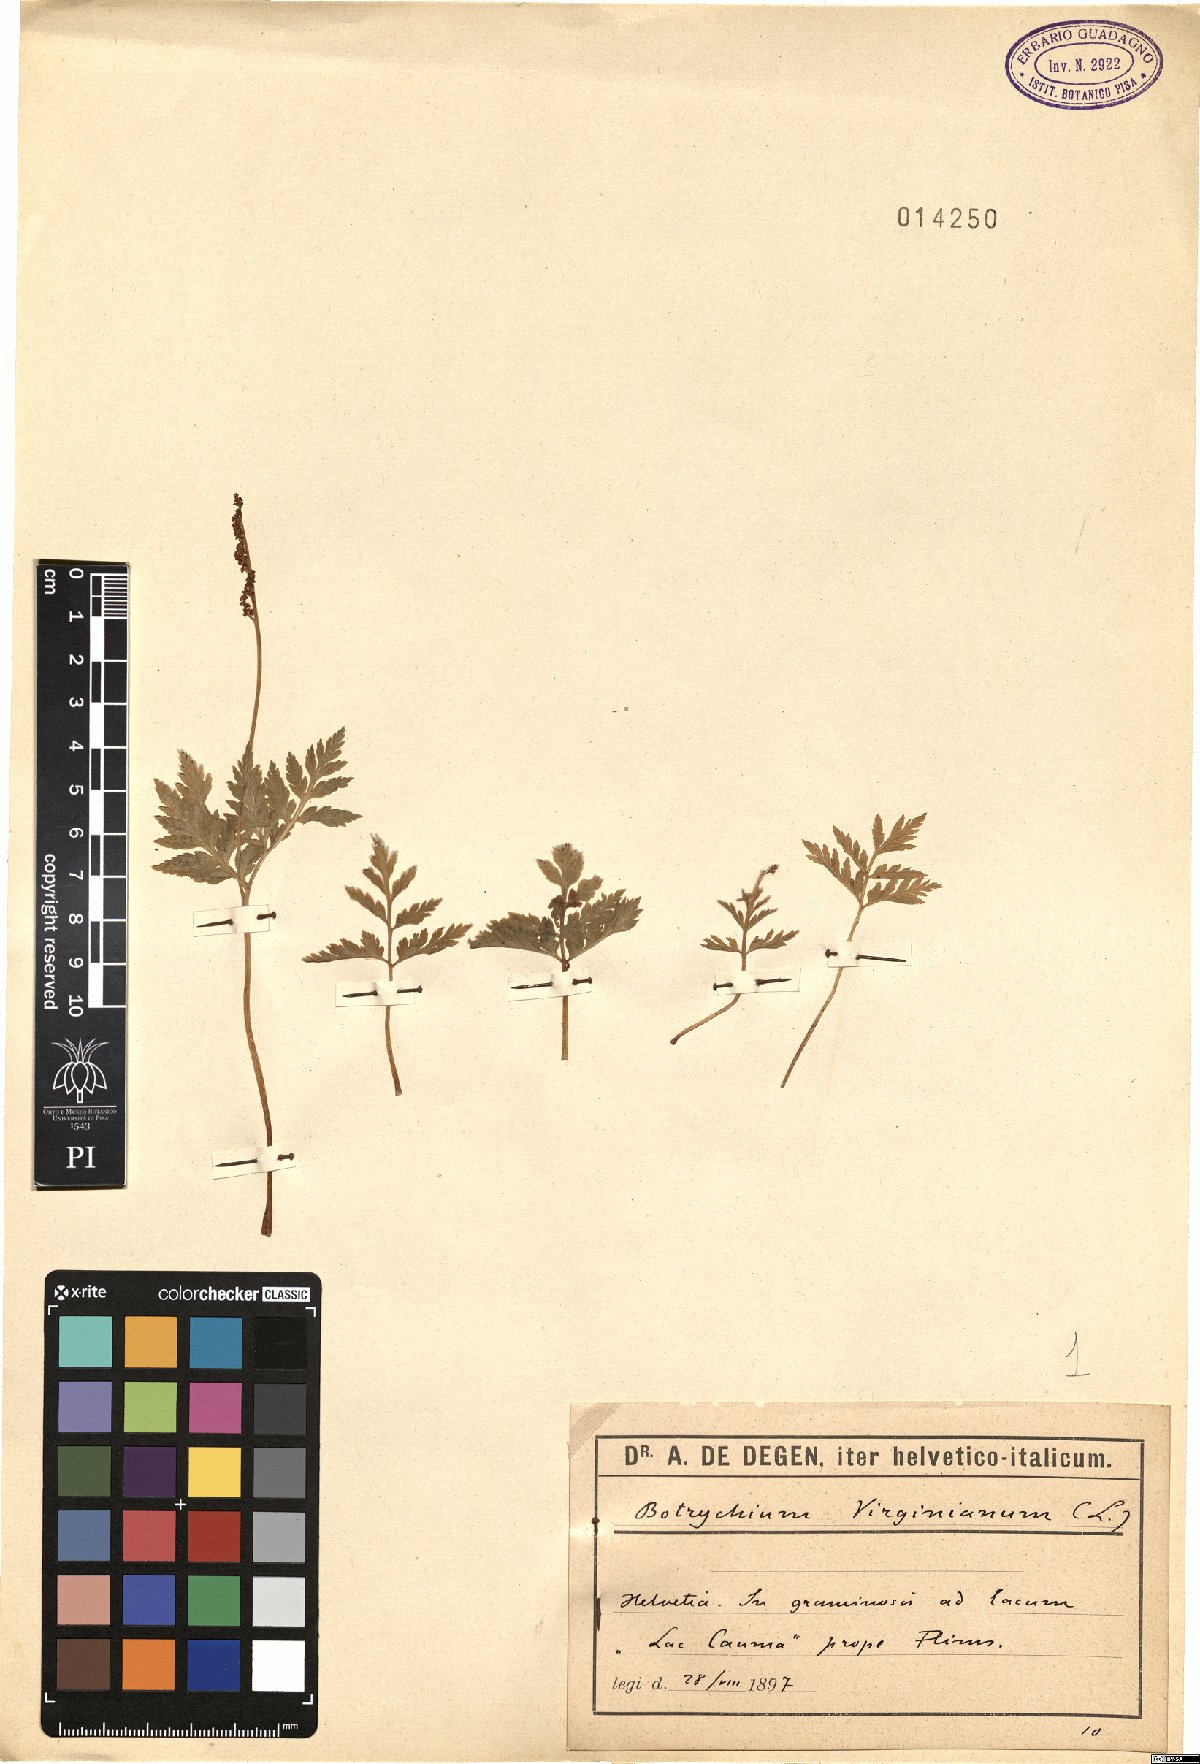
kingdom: Plantae
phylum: Tracheophyta
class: Polypodiopsida
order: Ophioglossales
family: Ophioglossaceae
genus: Botrypus
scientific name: Botrypus virginianus
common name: Common grapefern
